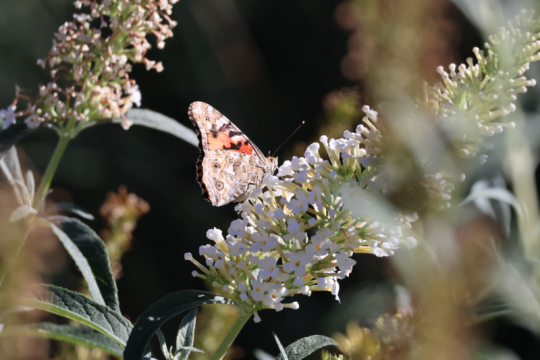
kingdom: Animalia
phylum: Arthropoda
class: Insecta
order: Lepidoptera
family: Nymphalidae
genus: Vanessa
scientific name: Vanessa cardui
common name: Painted Lady
